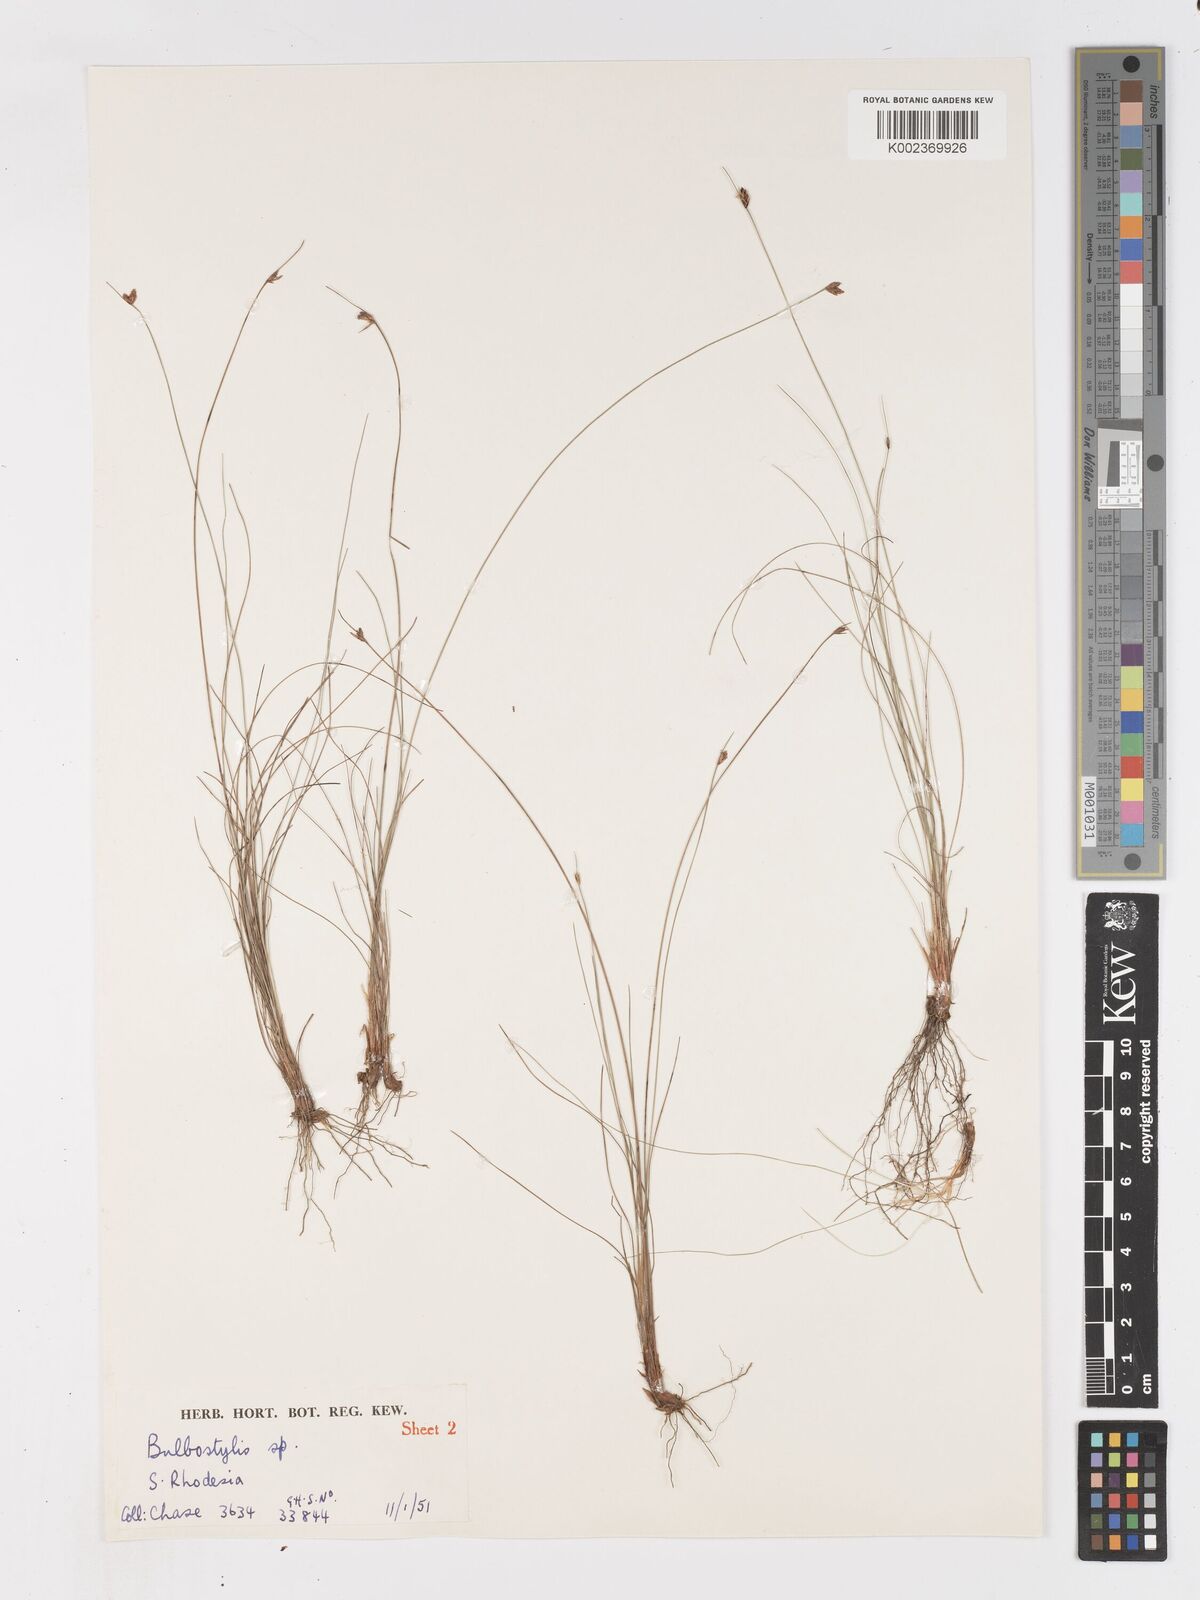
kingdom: Plantae
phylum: Tracheophyta
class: Liliopsida
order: Poales
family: Cyperaceae
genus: Ficinia
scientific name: Ficinia filiformis
